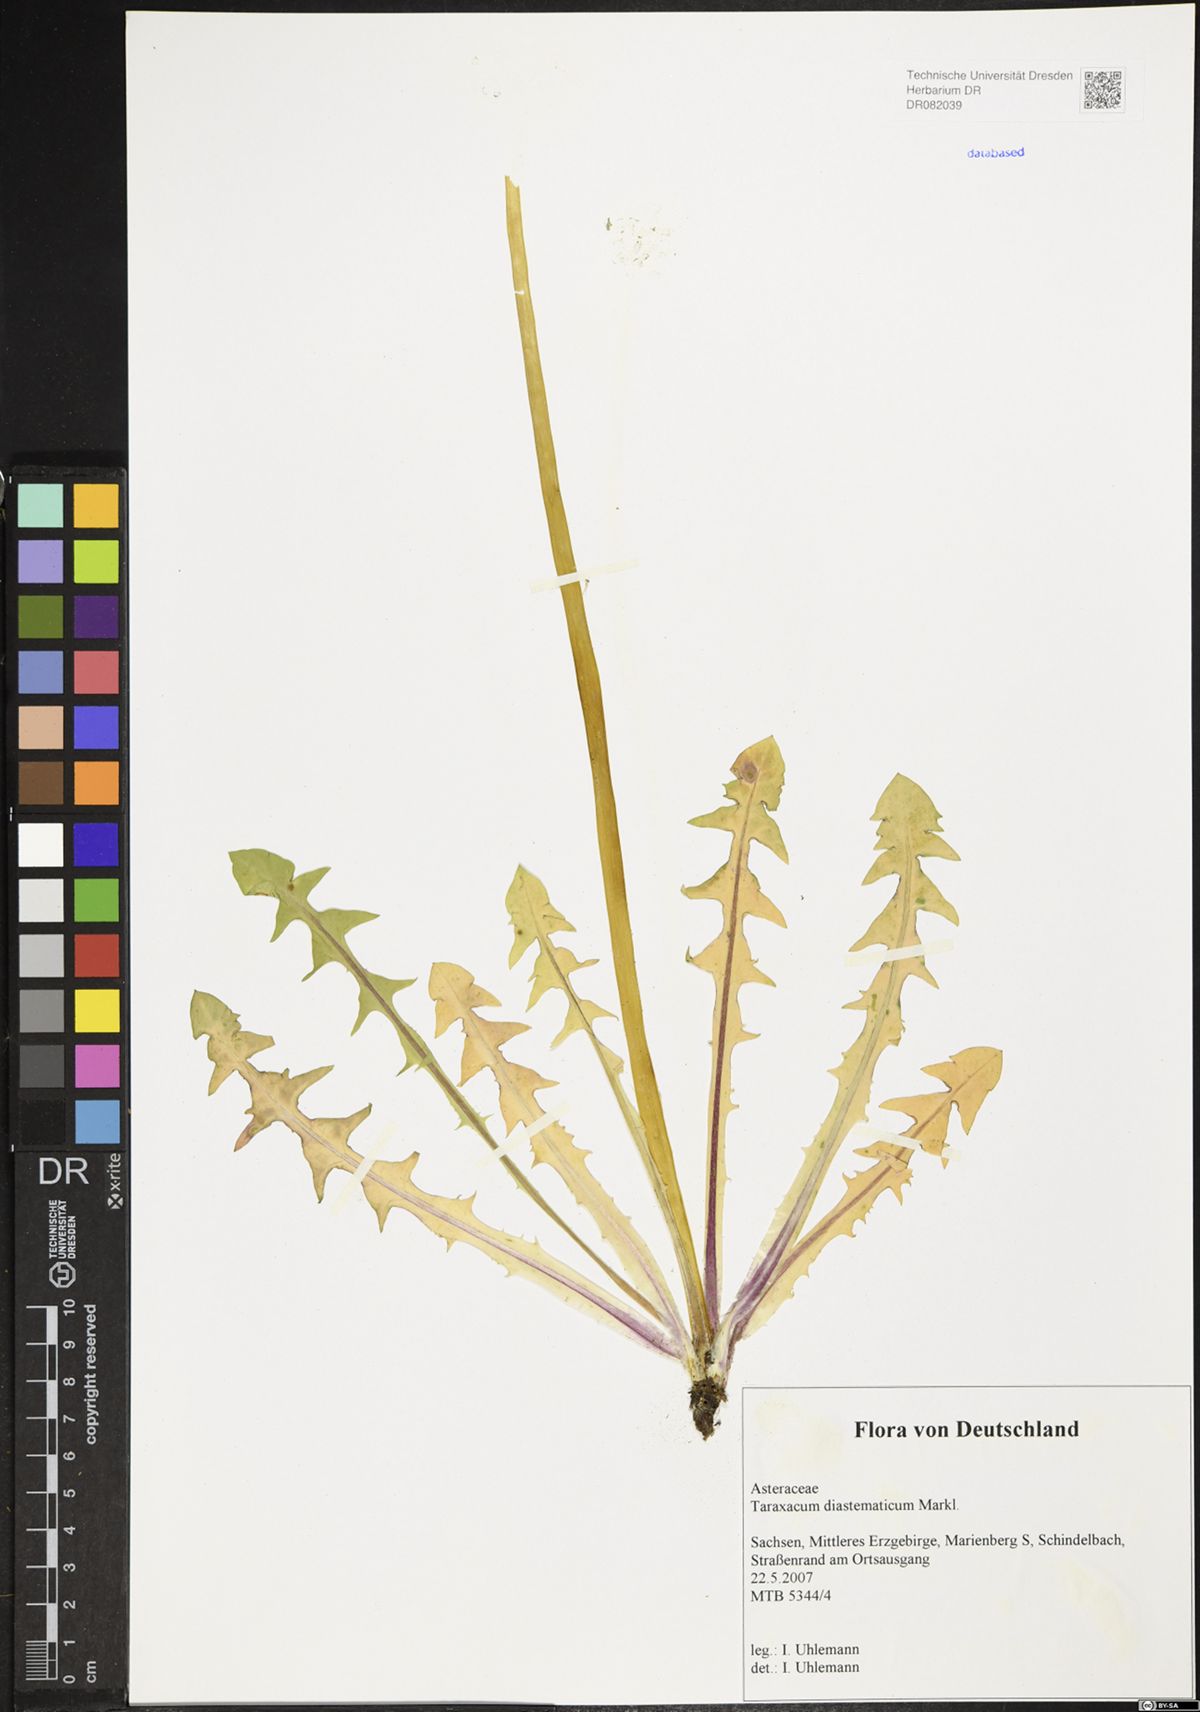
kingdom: Plantae
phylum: Tracheophyta
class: Magnoliopsida
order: Asterales
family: Asteraceae
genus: Taraxacum
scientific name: Taraxacum diastematicum
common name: Bulbous-lobed dandelion
